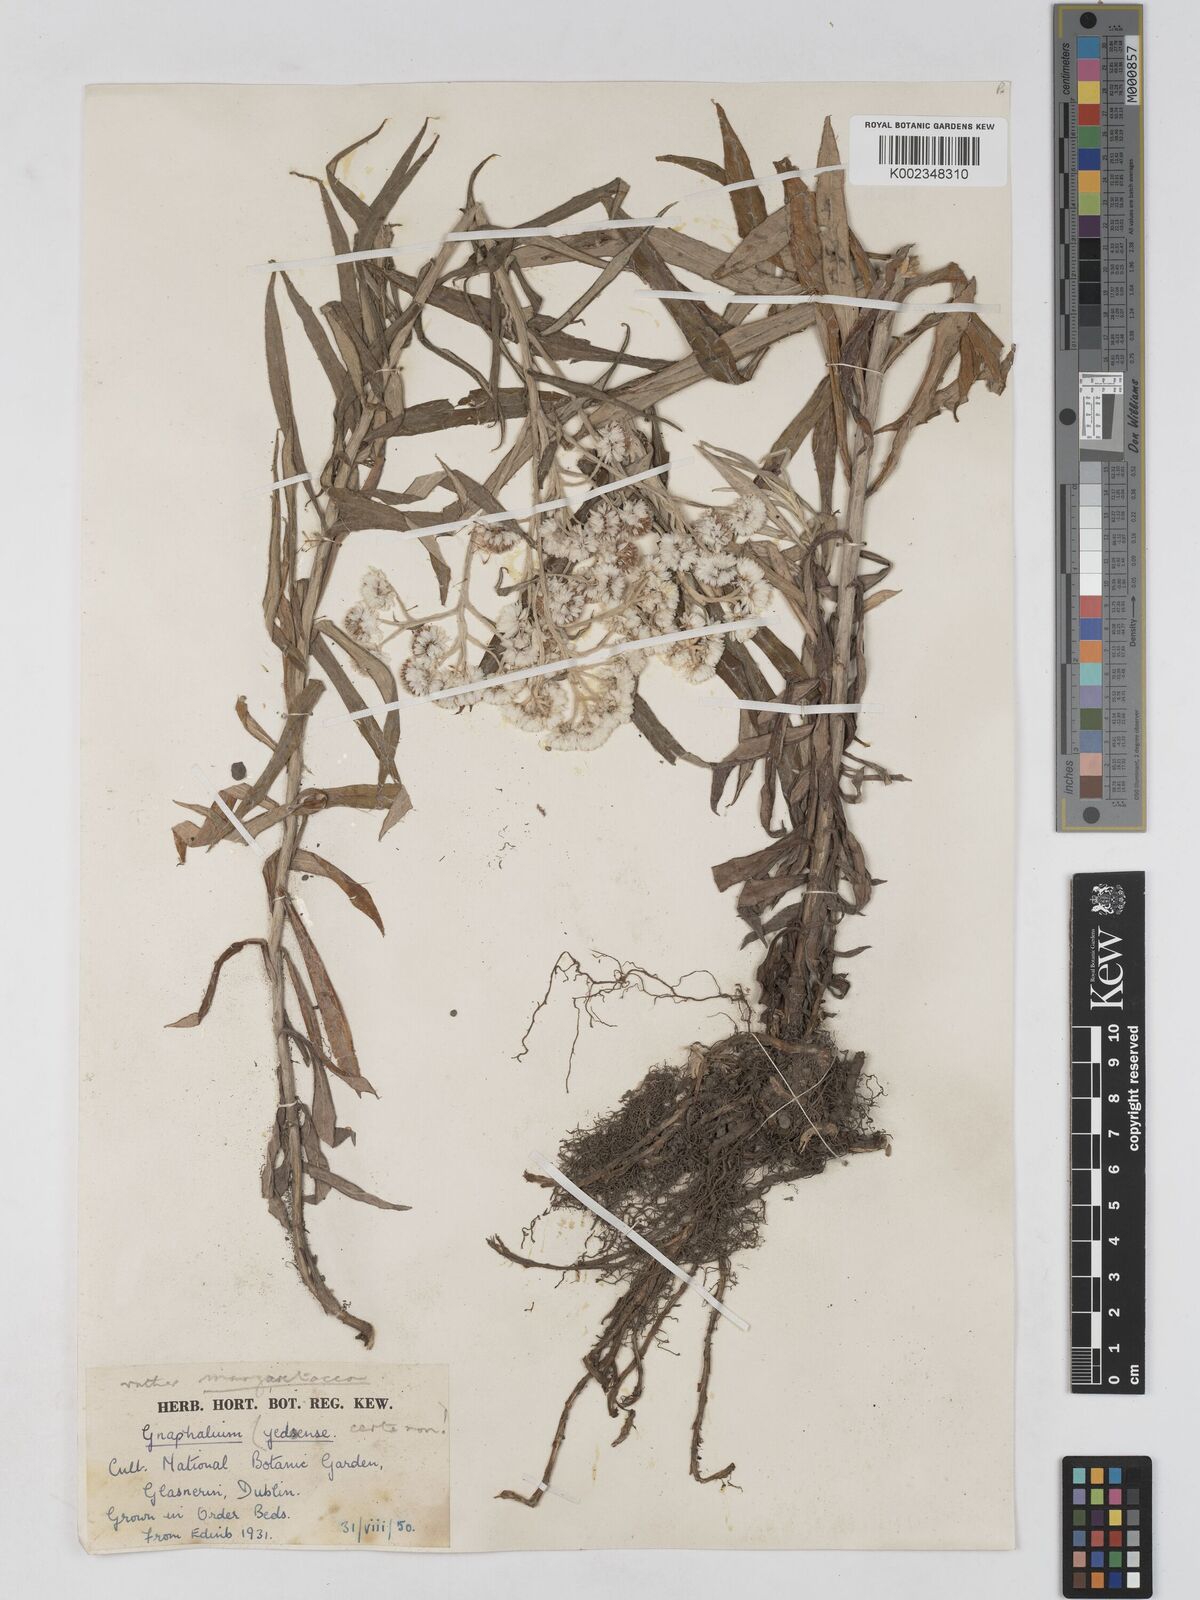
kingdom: Plantae
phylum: Tracheophyta
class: Magnoliopsida
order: Asterales
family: Asteraceae
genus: Anaphalis
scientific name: Anaphalis margaritacea
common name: Pearly everlasting
